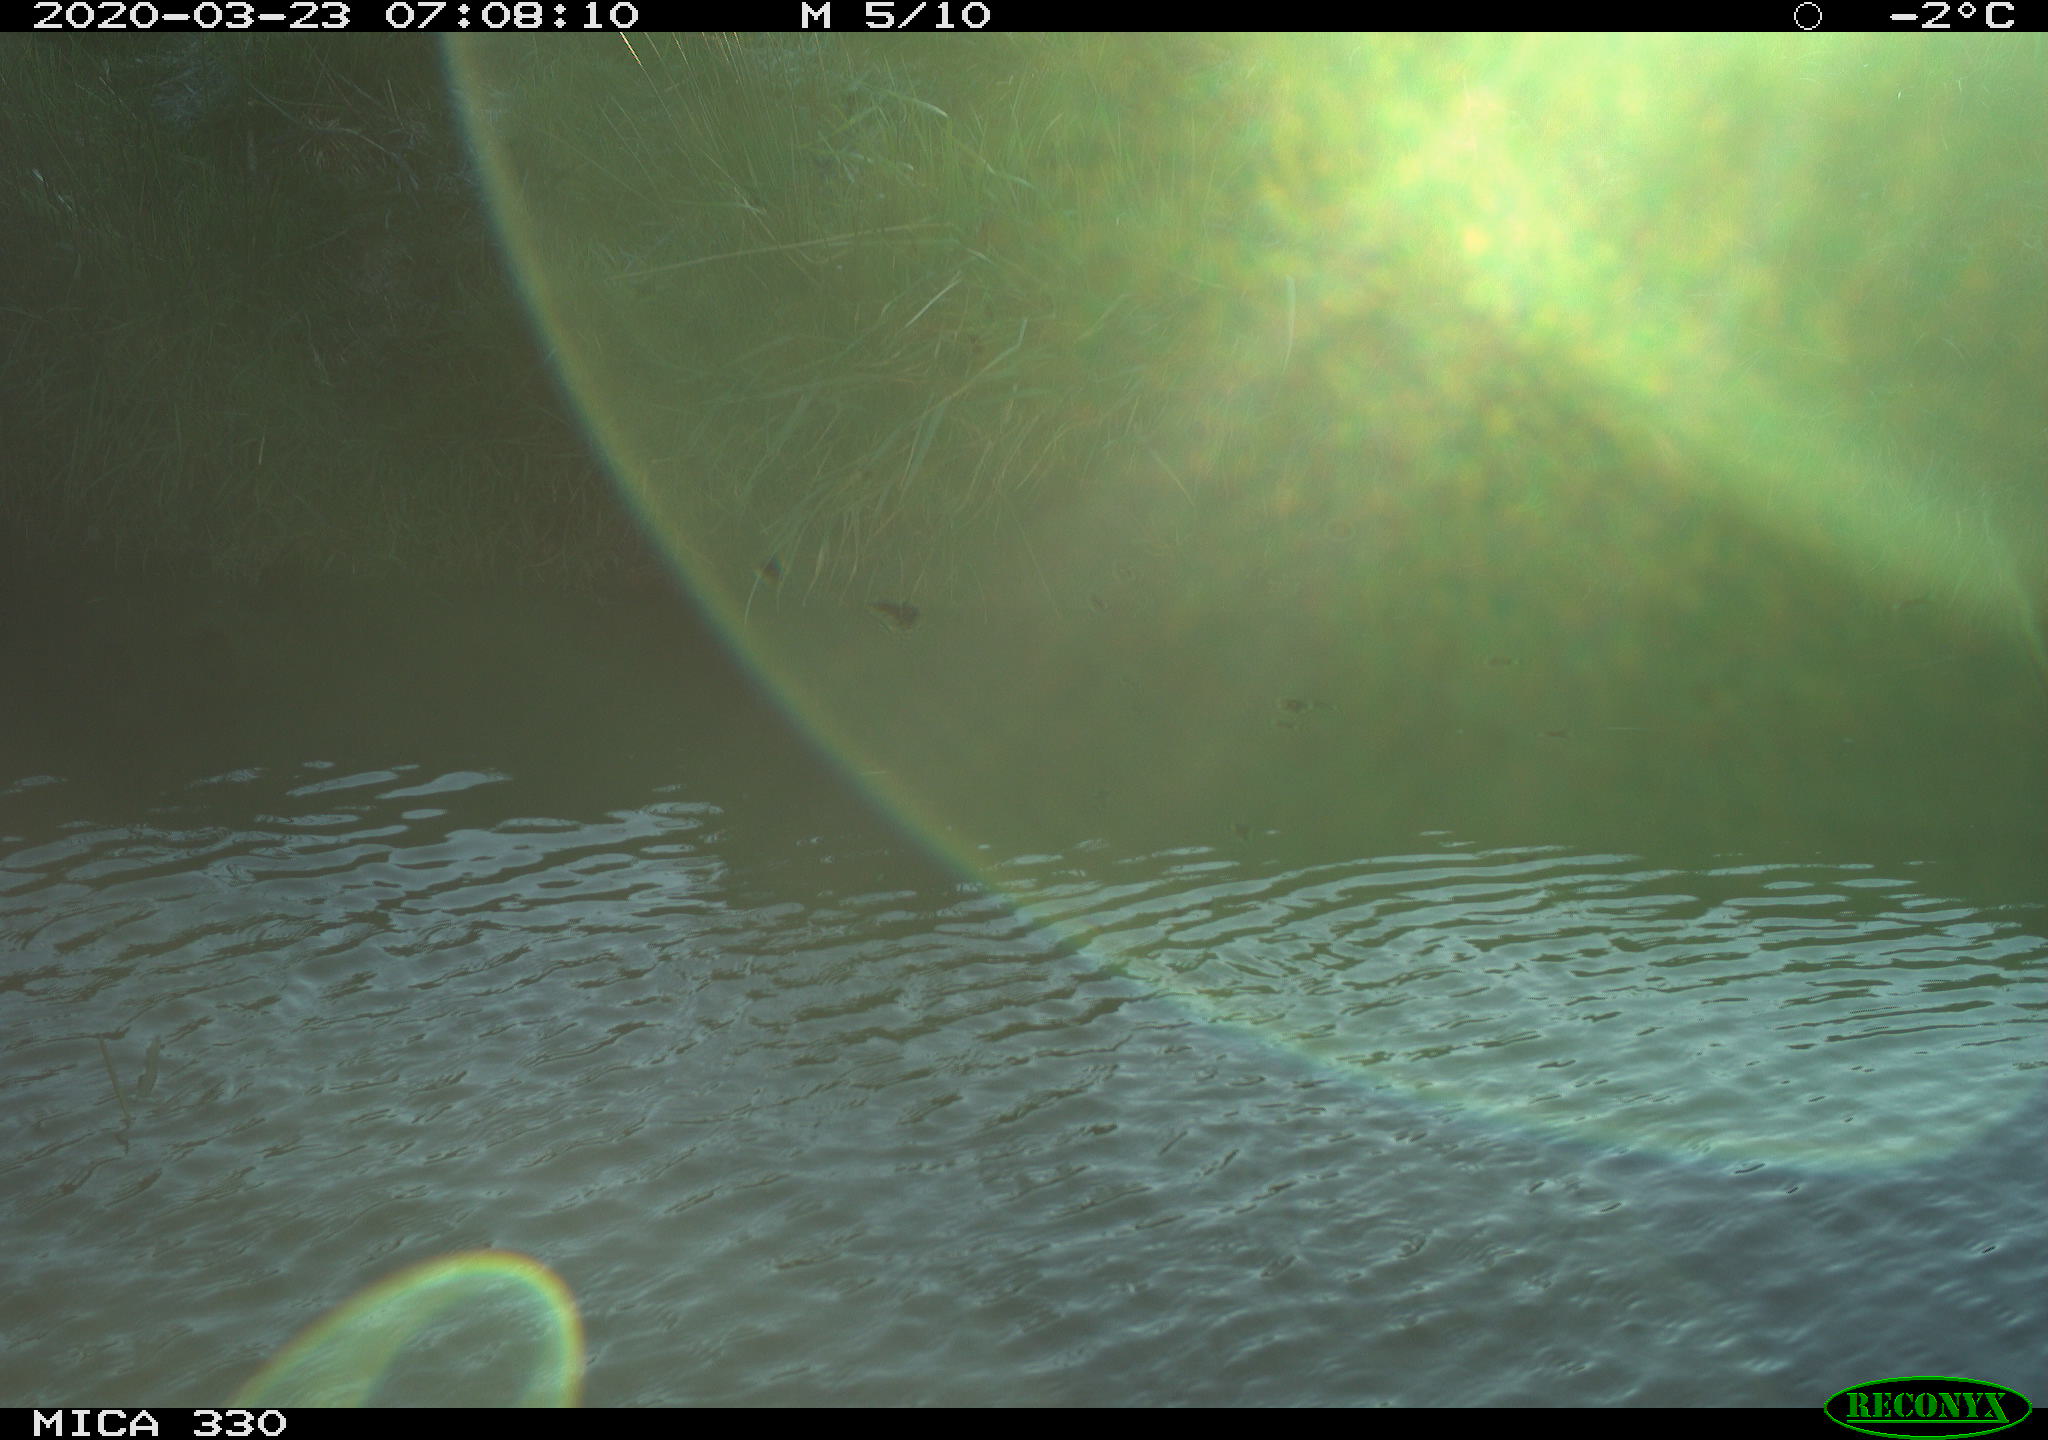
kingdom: Animalia
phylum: Chordata
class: Aves
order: Anseriformes
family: Anatidae
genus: Anas
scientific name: Anas platyrhynchos
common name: Mallard
